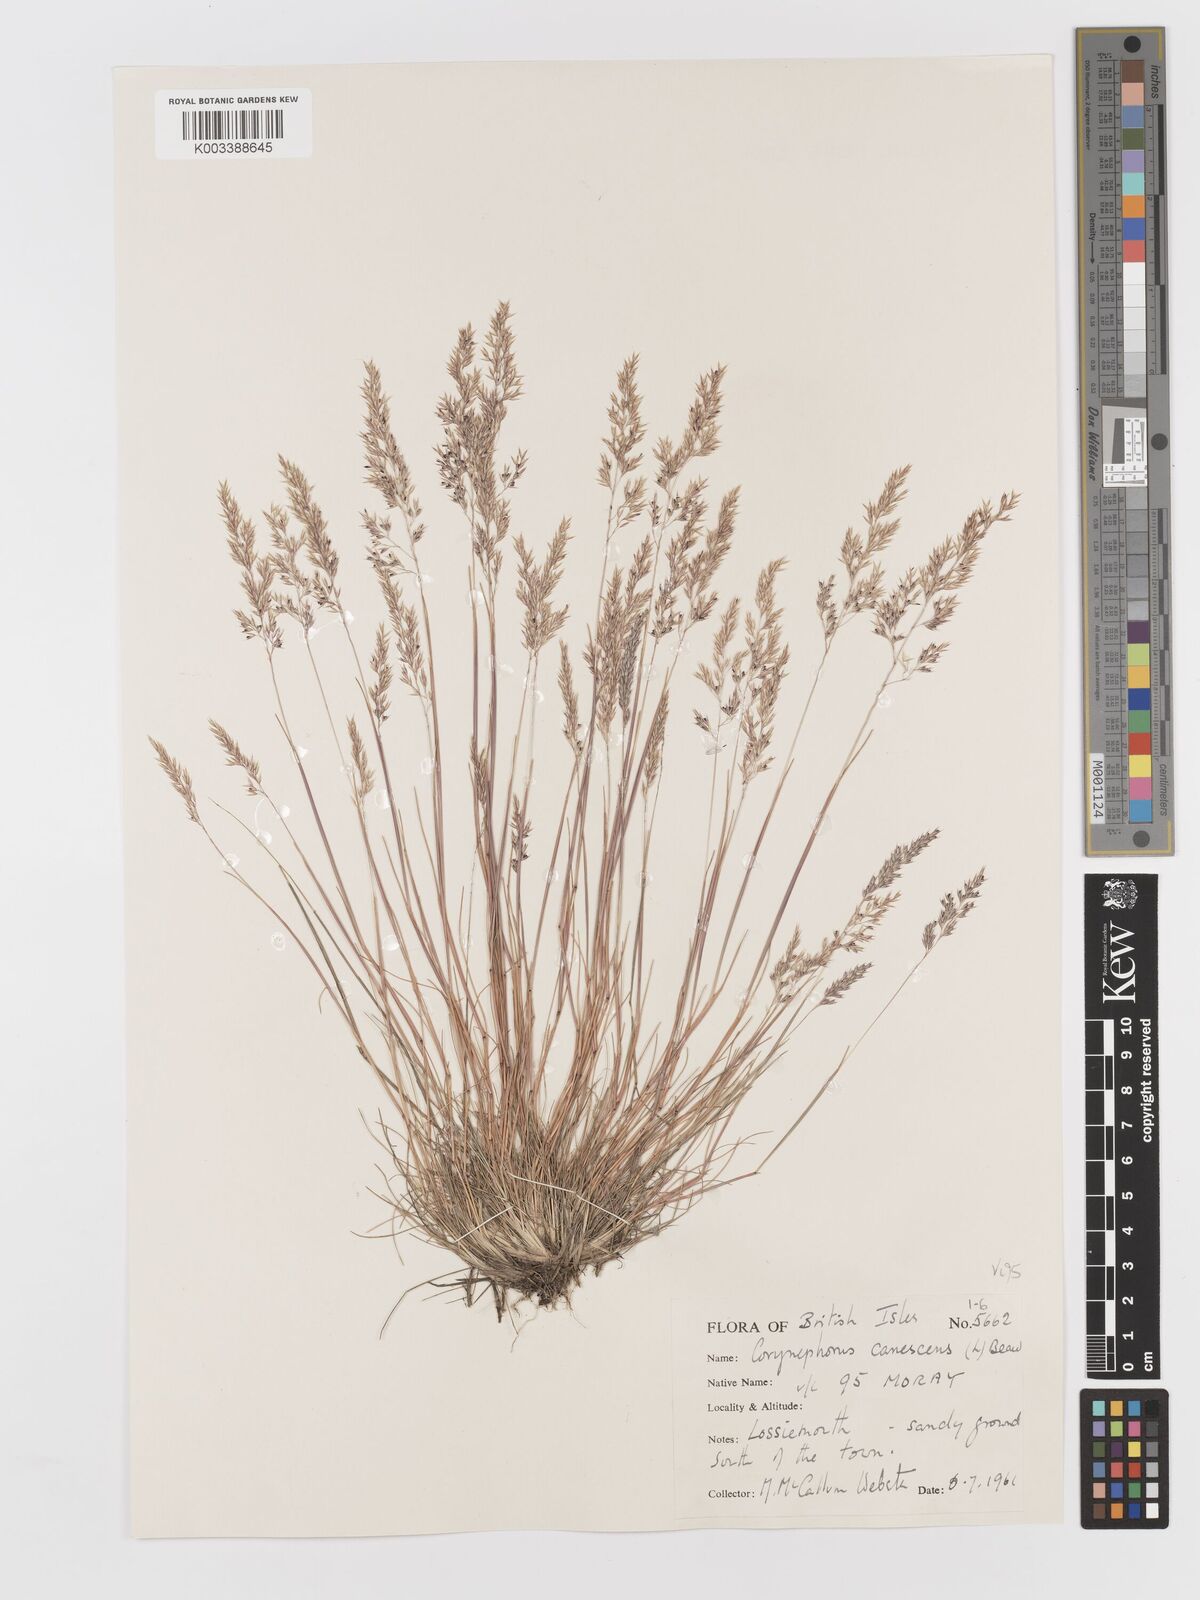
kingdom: Plantae
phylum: Tracheophyta
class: Liliopsida
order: Poales
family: Poaceae
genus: Corynephorus
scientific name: Corynephorus canescens
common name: Grey hair-grass
